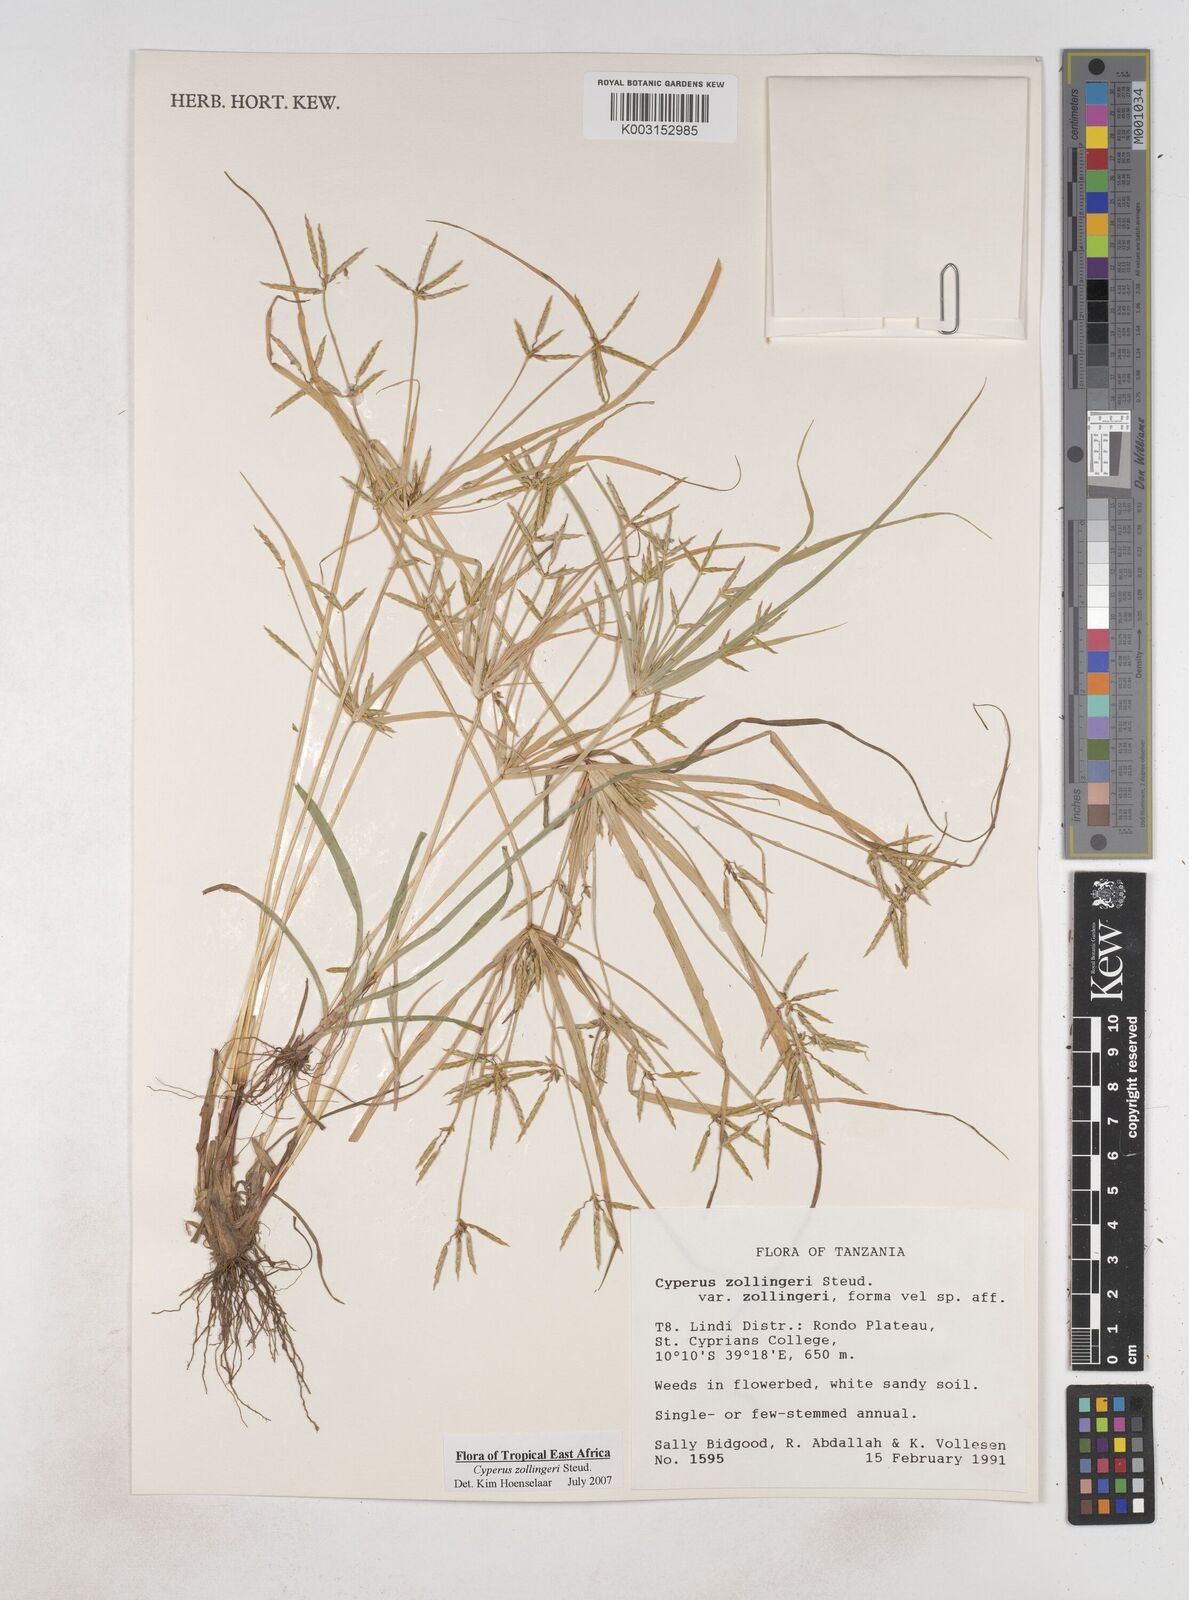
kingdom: Plantae
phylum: Tracheophyta
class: Liliopsida
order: Poales
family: Cyperaceae
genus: Cyperus
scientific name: Cyperus zollingeri
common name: Roadside flatsedge
